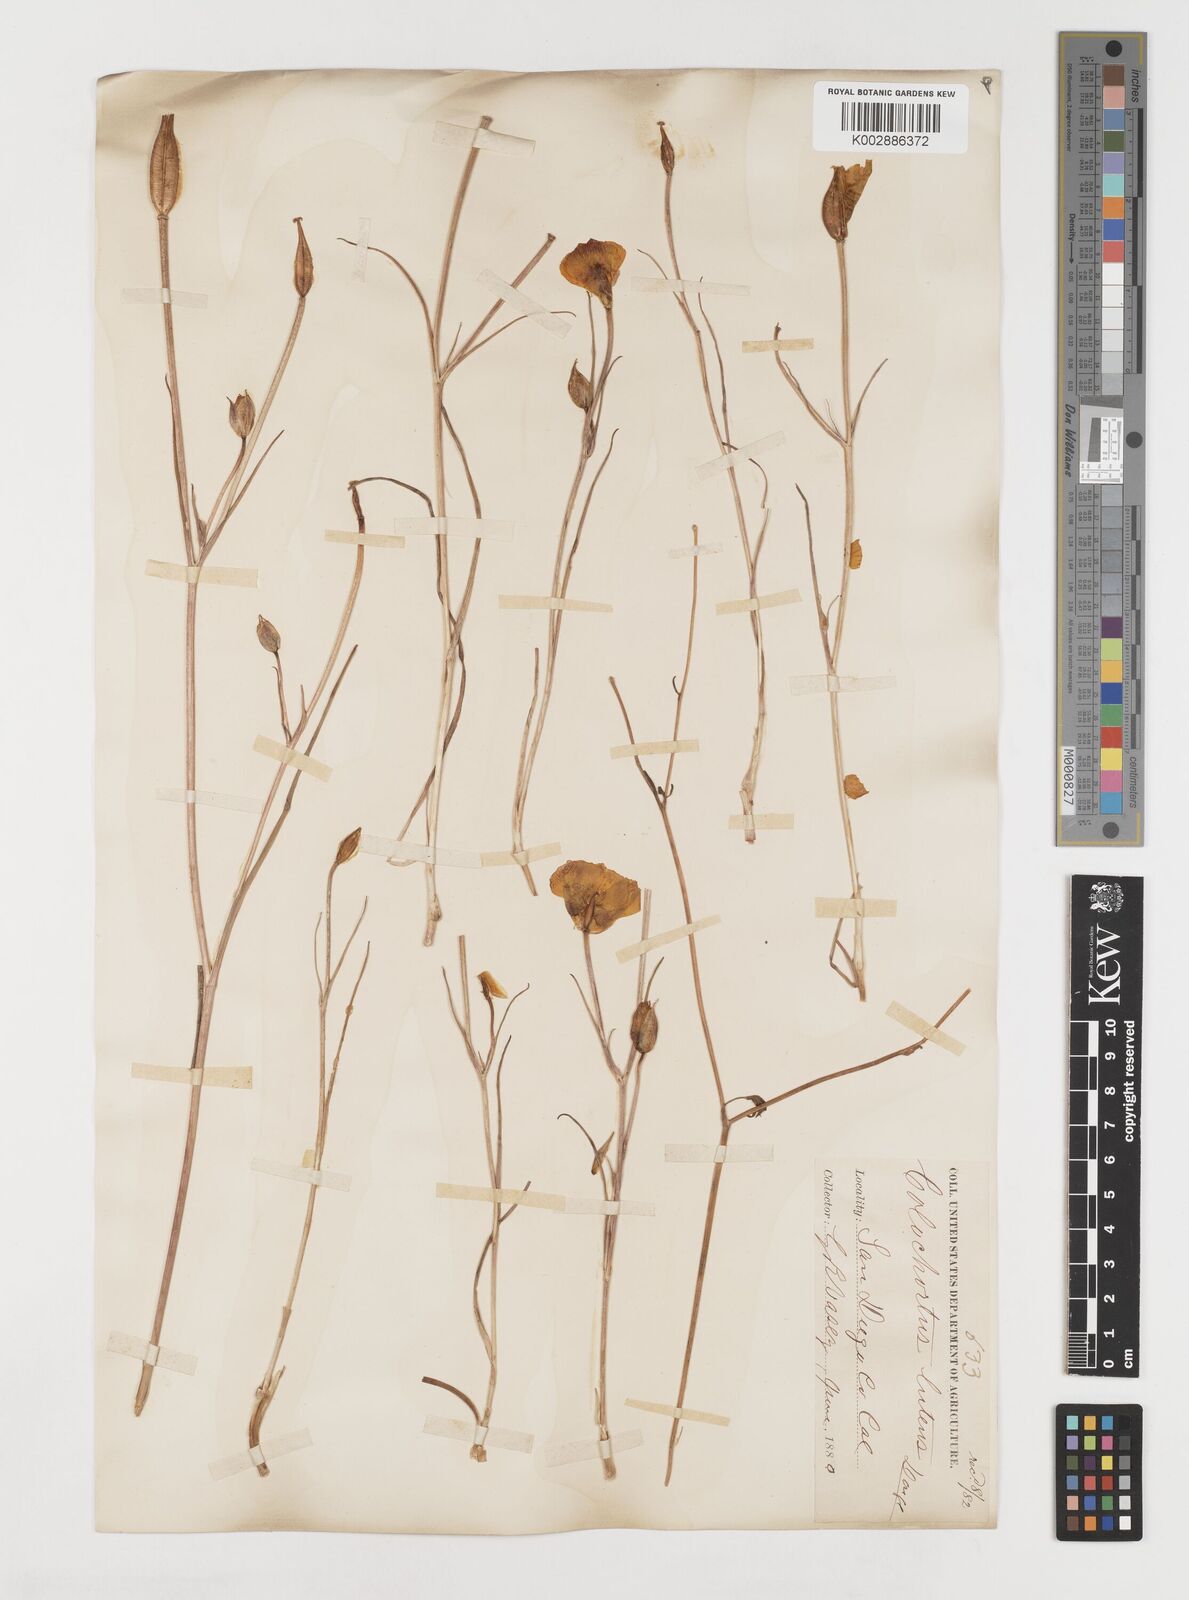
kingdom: Plantae
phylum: Tracheophyta
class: Liliopsida
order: Liliales
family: Liliaceae
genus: Calochortus
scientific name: Calochortus nuttallii
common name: Sego-lily
